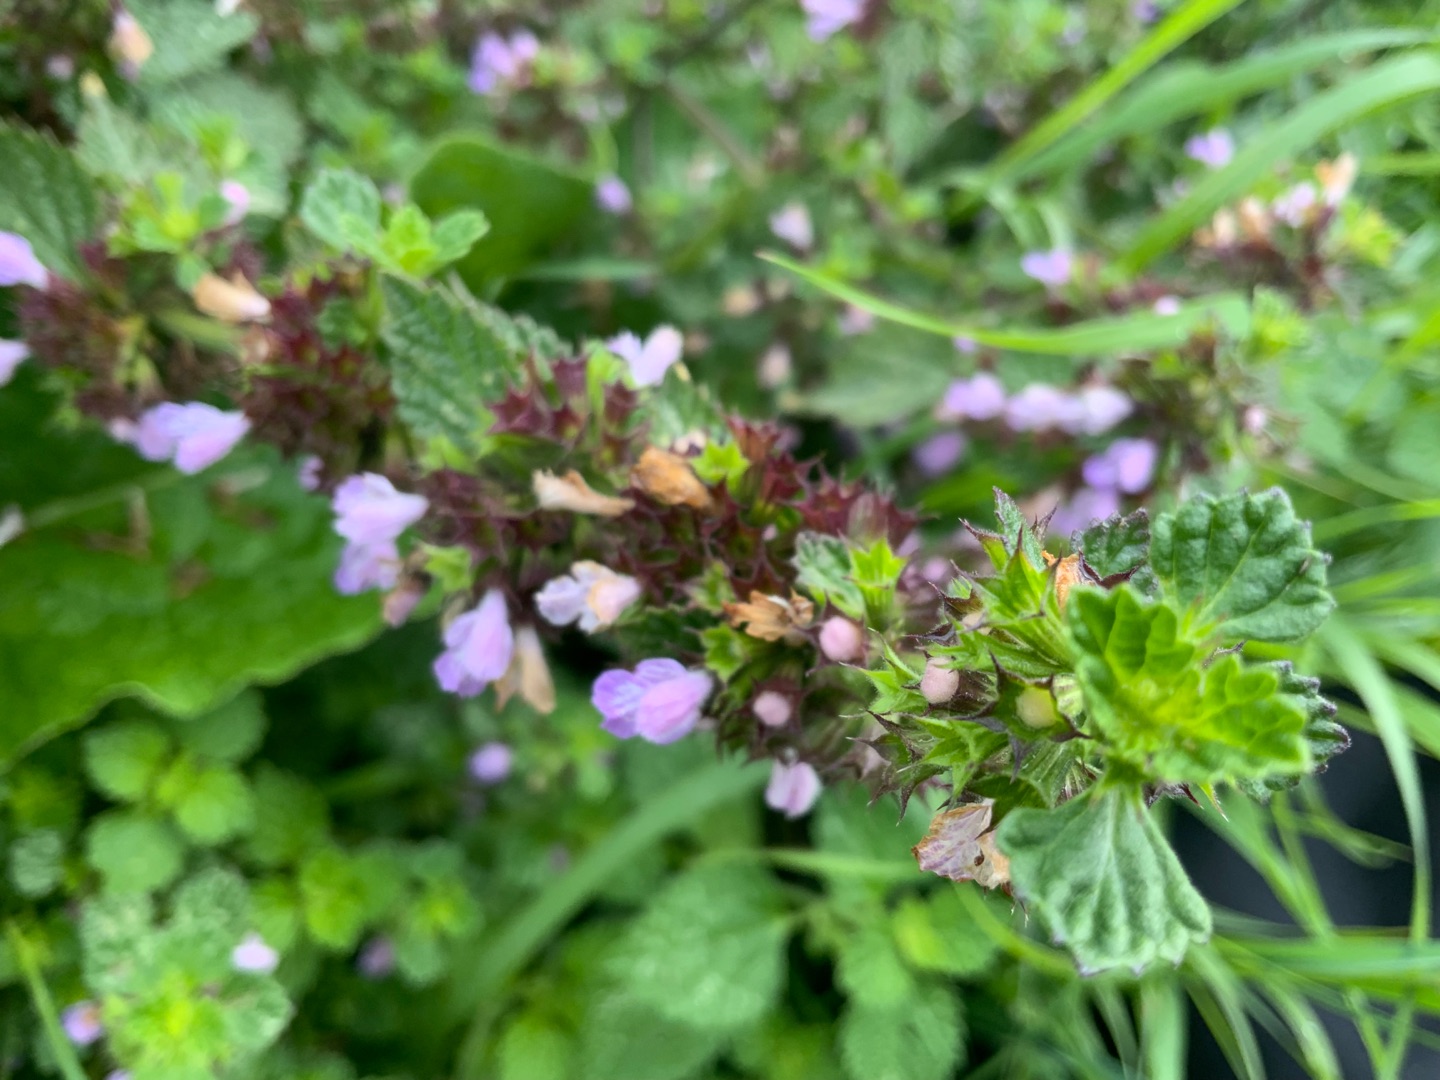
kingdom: Plantae
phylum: Tracheophyta
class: Magnoliopsida
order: Lamiales
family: Lamiaceae
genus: Ballota
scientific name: Ballota nigra
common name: Tandbæger
